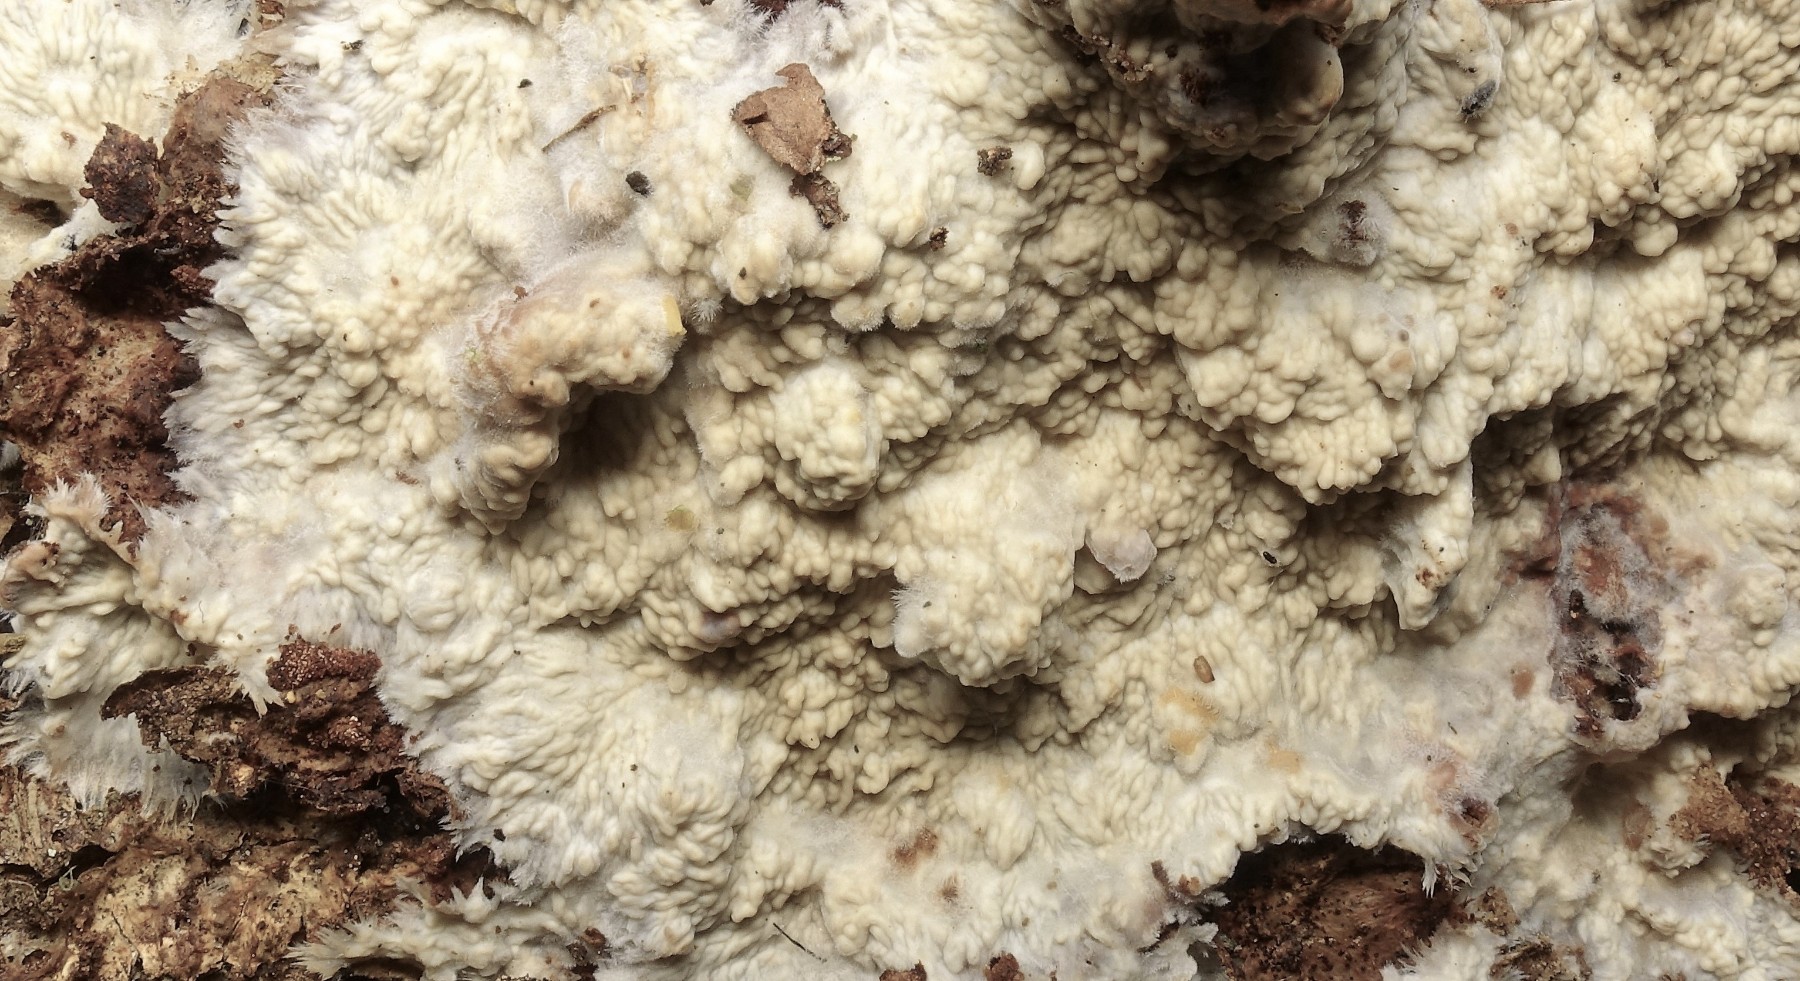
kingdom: Fungi
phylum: Basidiomycota
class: Agaricomycetes
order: Polyporales
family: Meruliaceae
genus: Hermanssonia
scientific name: Hermanssonia centrifuga
